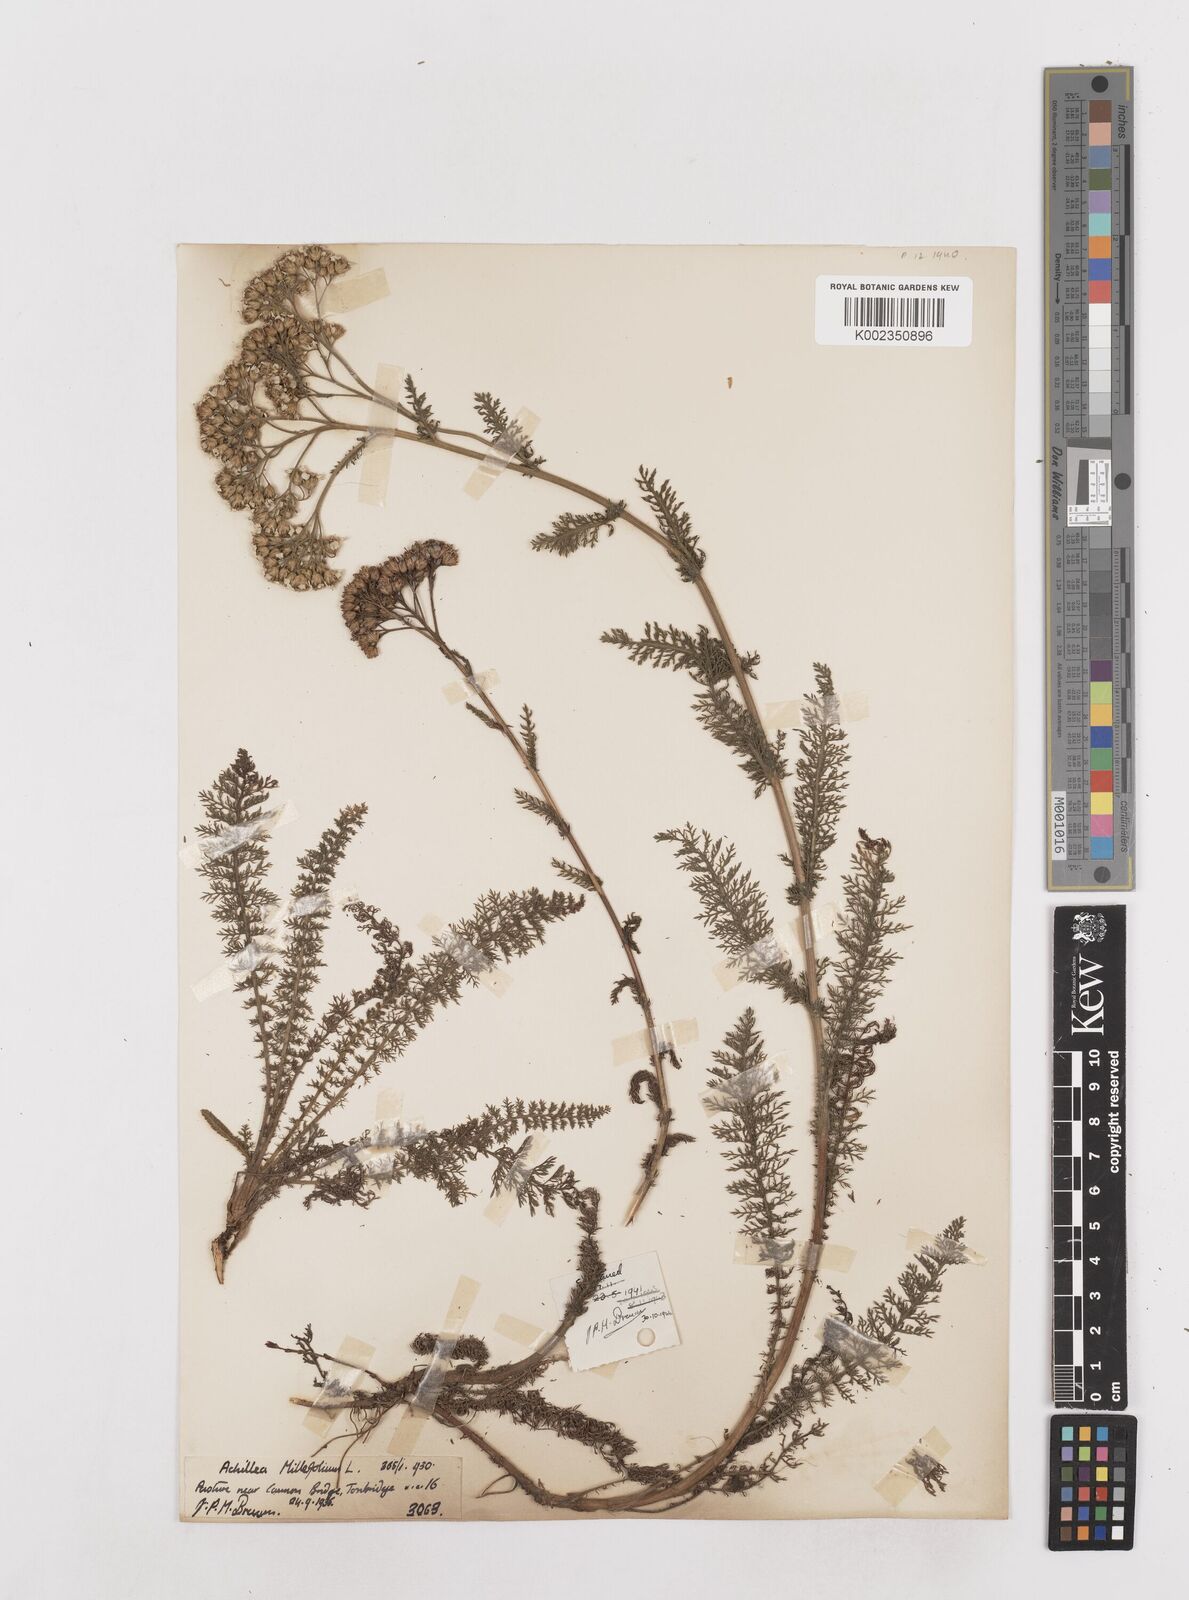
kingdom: Plantae
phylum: Tracheophyta
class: Magnoliopsida
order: Asterales
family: Asteraceae
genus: Achillea
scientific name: Achillea millefolium
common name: Yarrow
